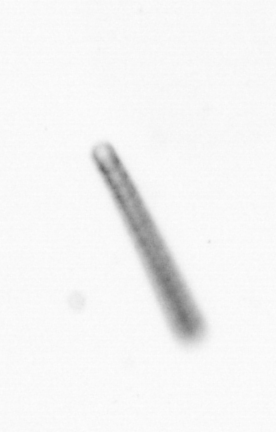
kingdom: Chromista
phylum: Ochrophyta
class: Bacillariophyceae
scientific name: Bacillariophyceae
